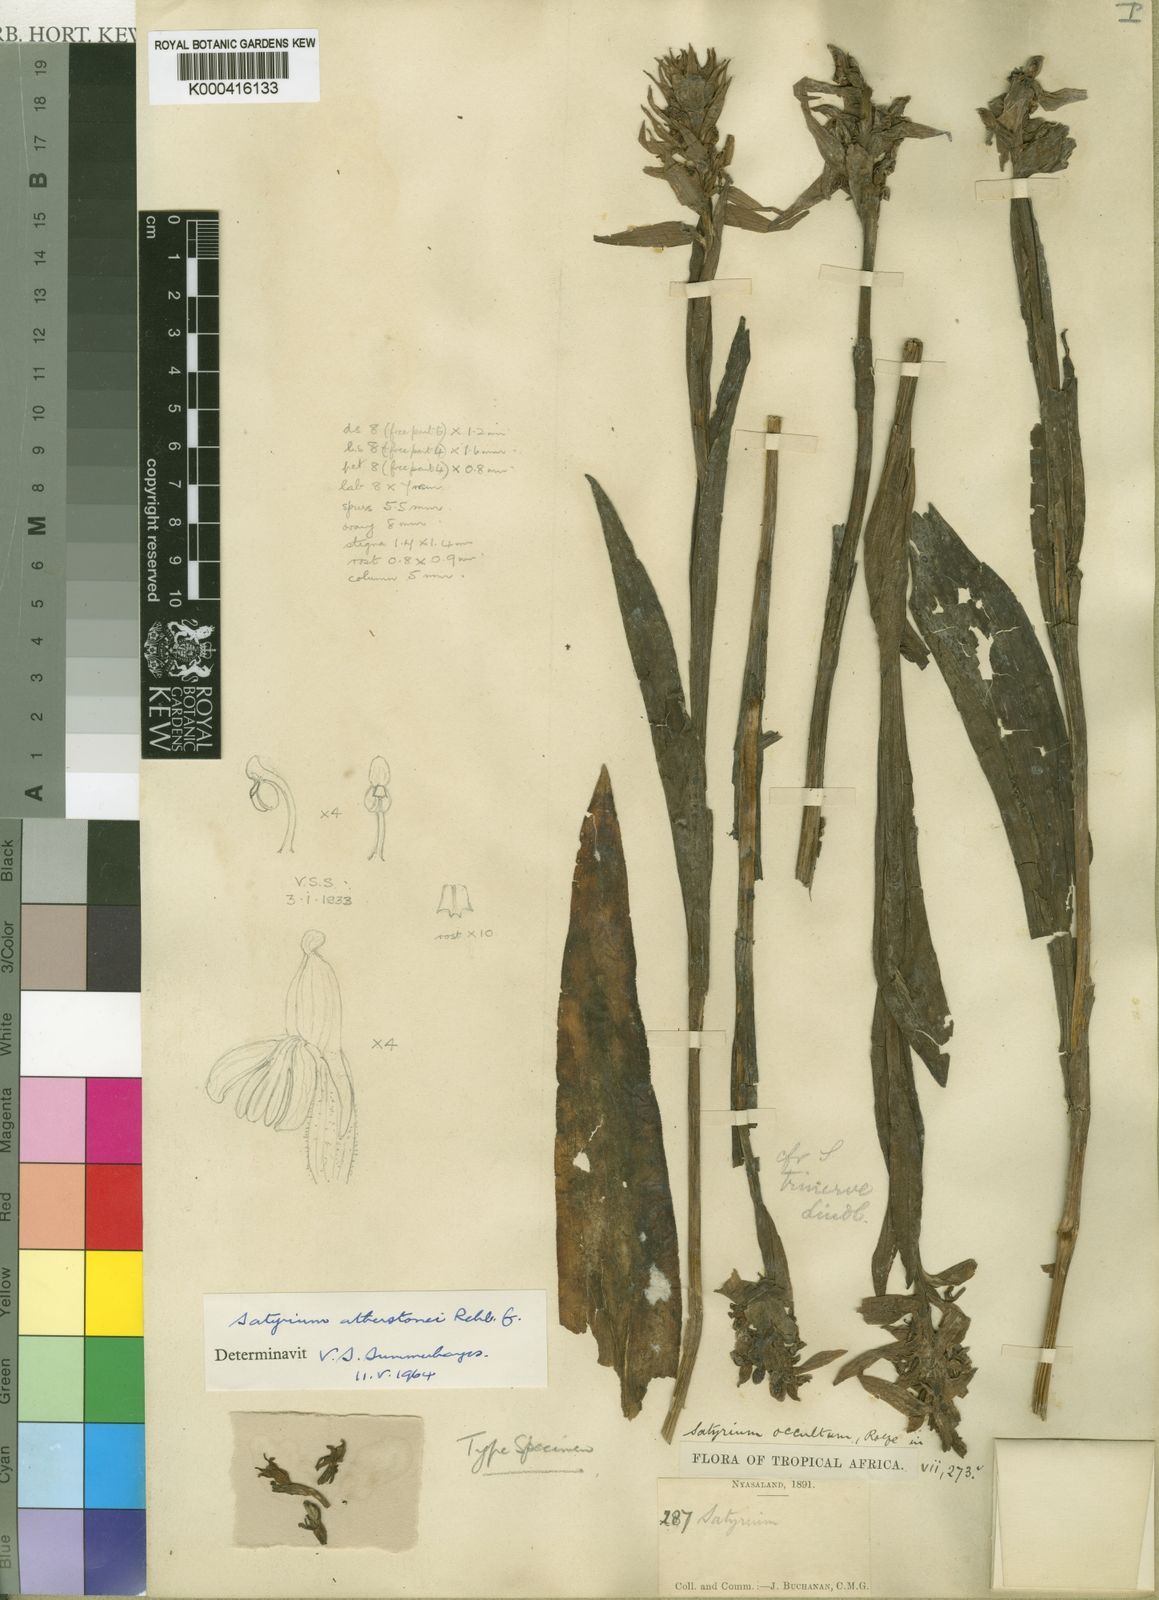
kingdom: Plantae
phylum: Tracheophyta
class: Liliopsida
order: Asparagales
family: Orchidaceae
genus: Satyrium
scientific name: Satyrium trinerve
